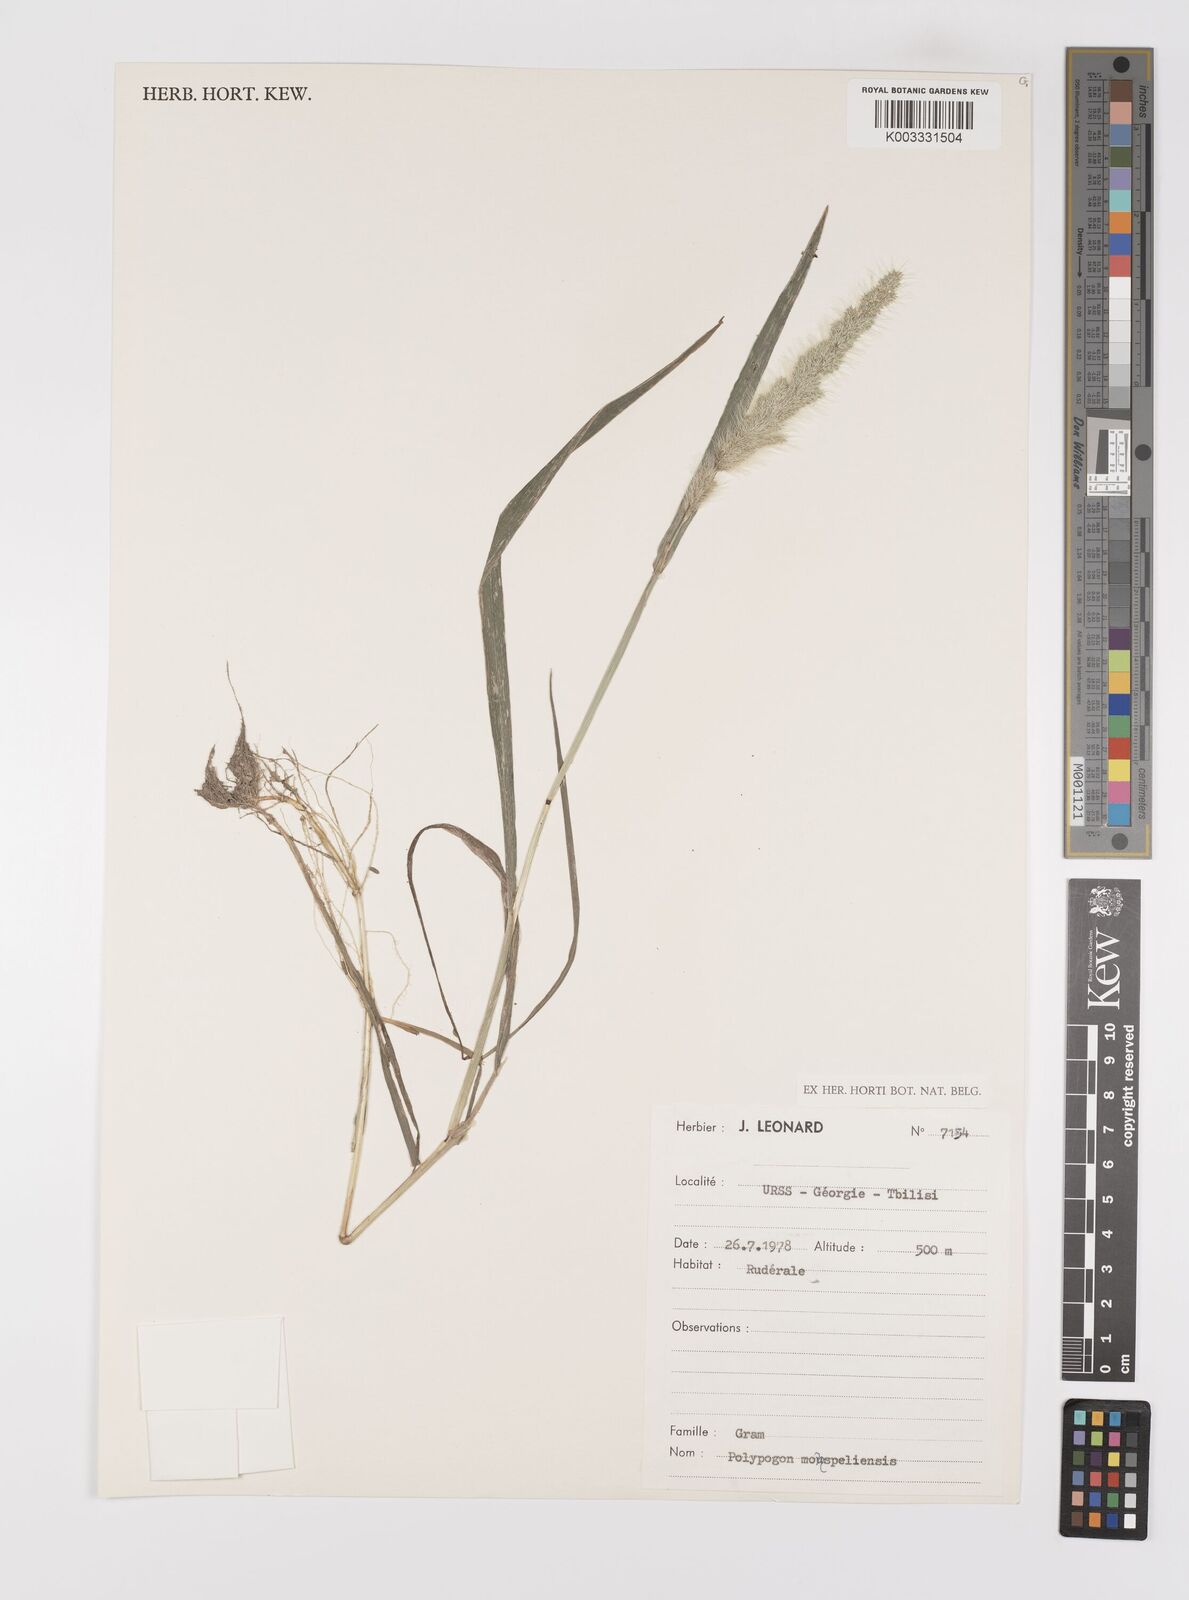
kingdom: Plantae
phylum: Tracheophyta
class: Liliopsida
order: Poales
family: Poaceae
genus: Polypogon
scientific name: Polypogon monspeliensis
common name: Annual rabbitsfoot grass
